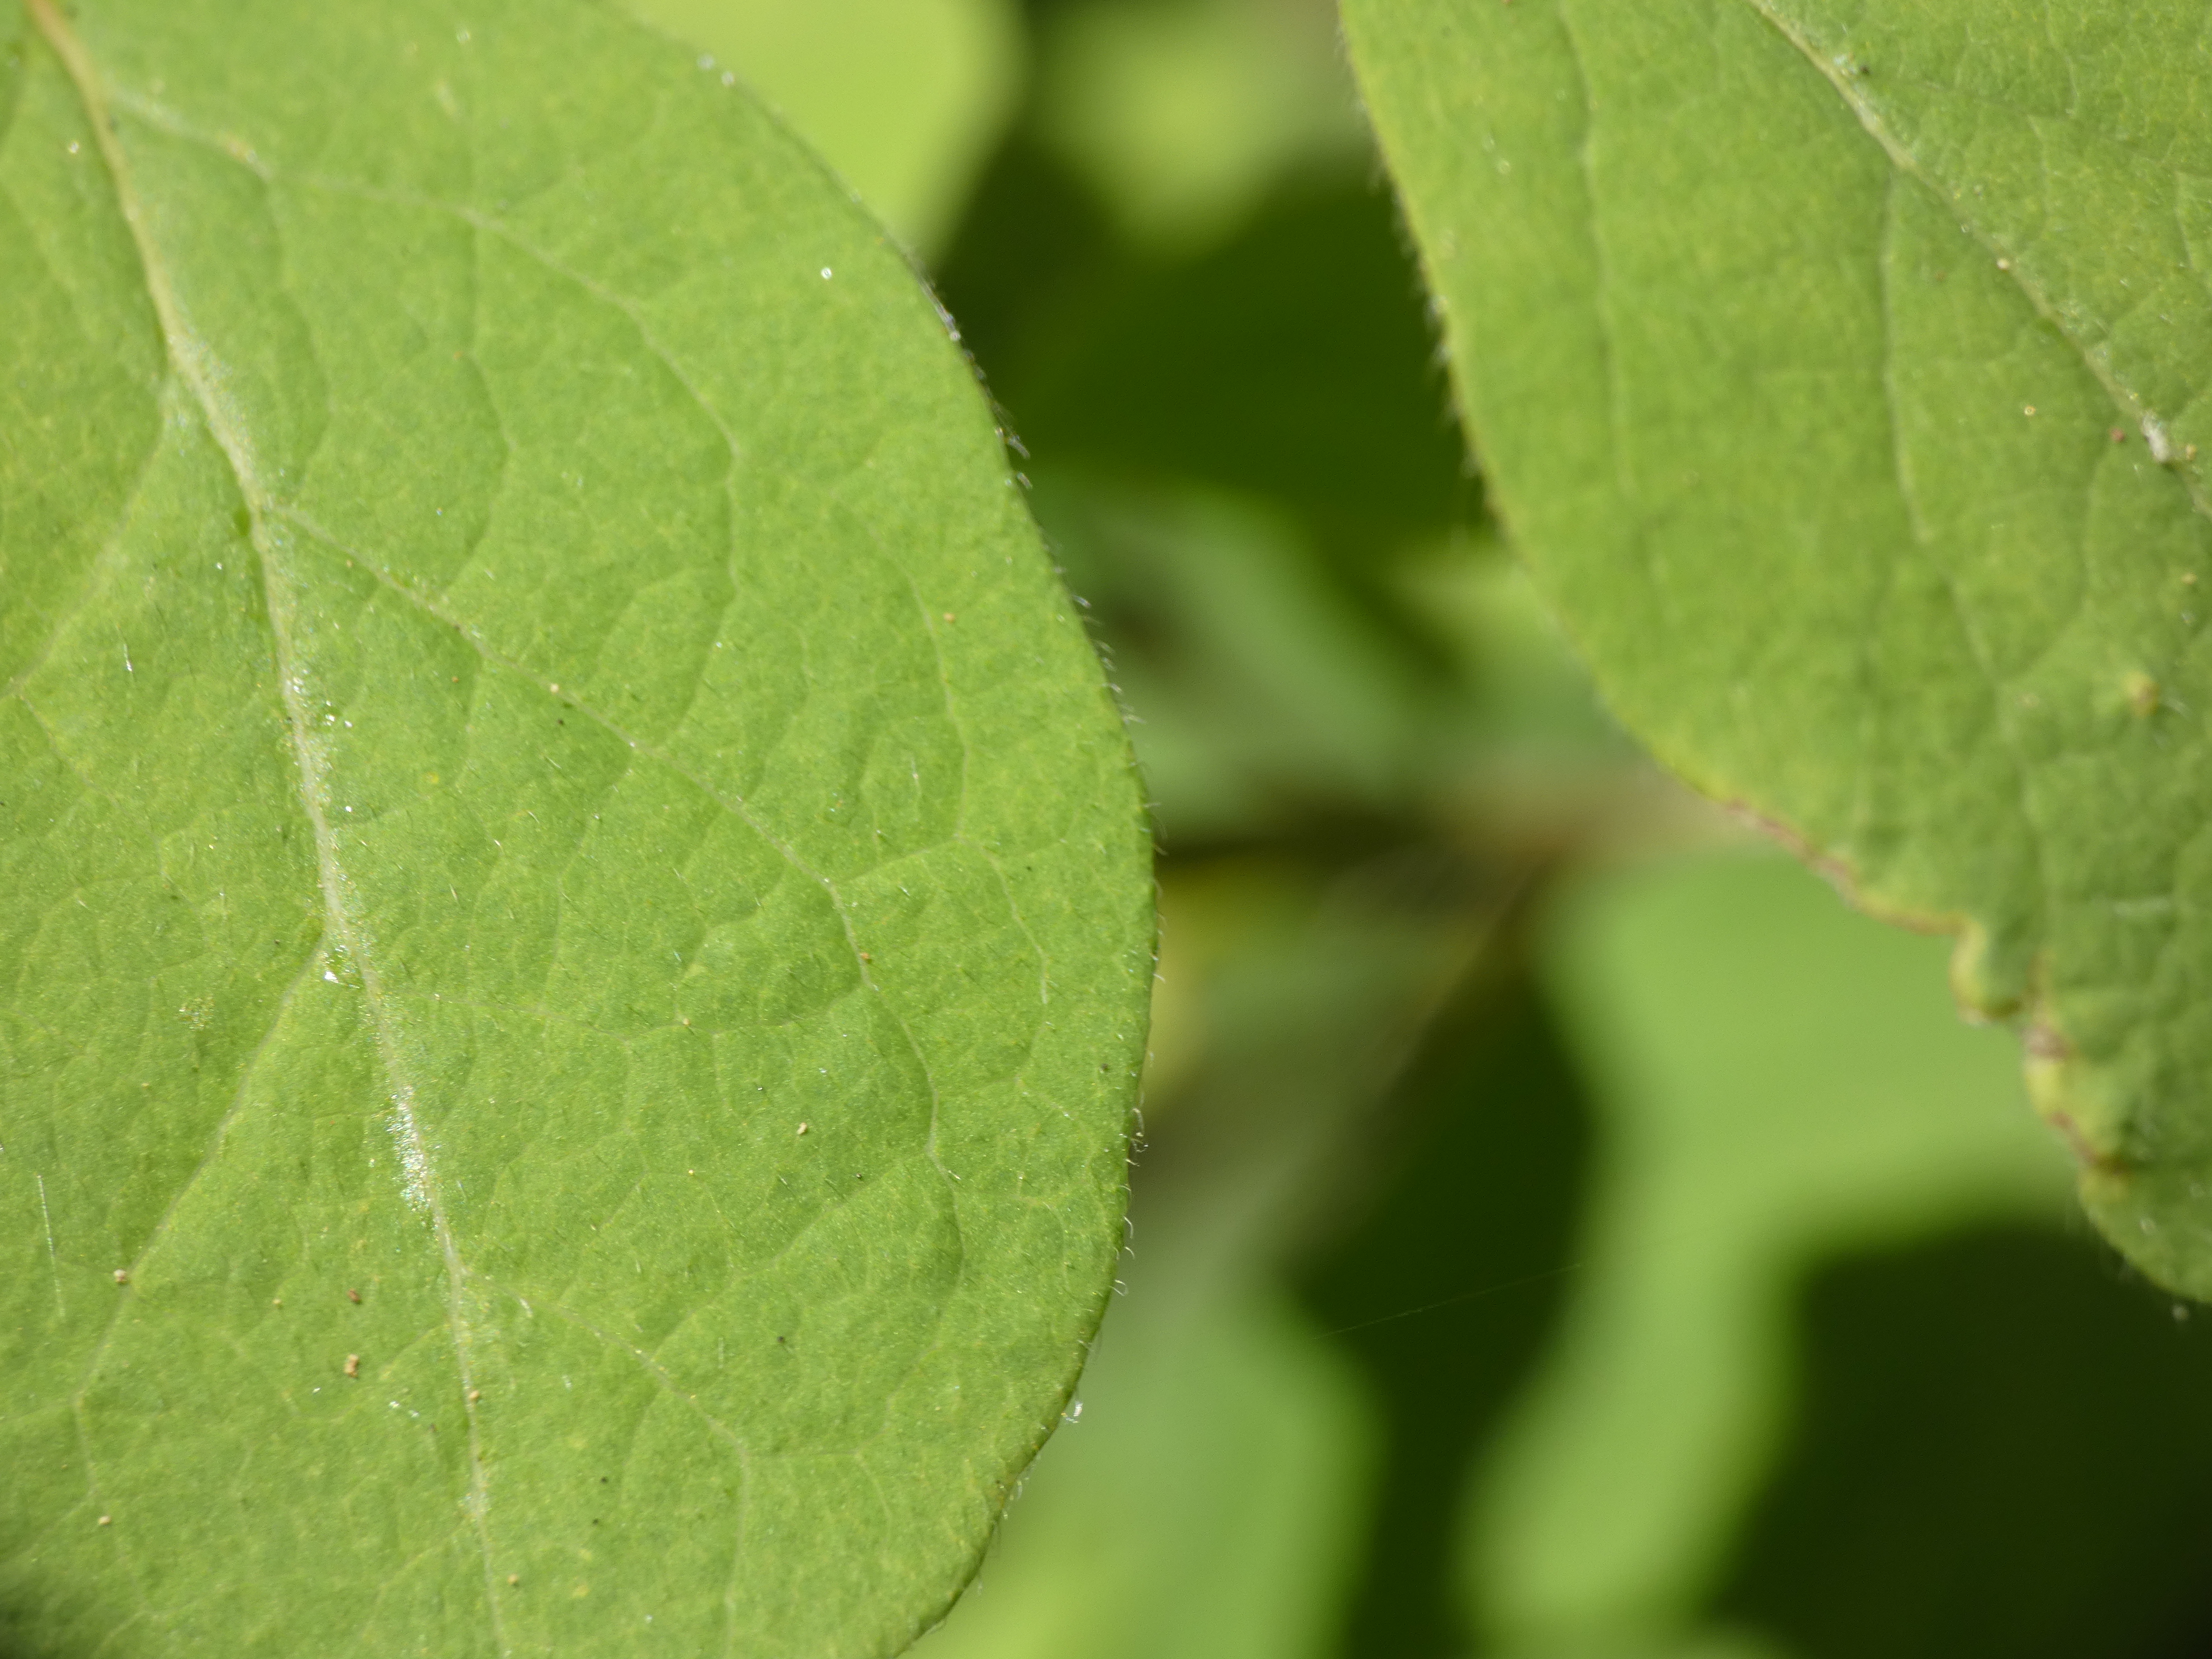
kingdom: Plantae
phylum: Tracheophyta
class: Magnoliopsida
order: Dipsacales
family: Caprifoliaceae
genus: Lonicera
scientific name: Lonicera xylosteum
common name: Dunet gedeblad
